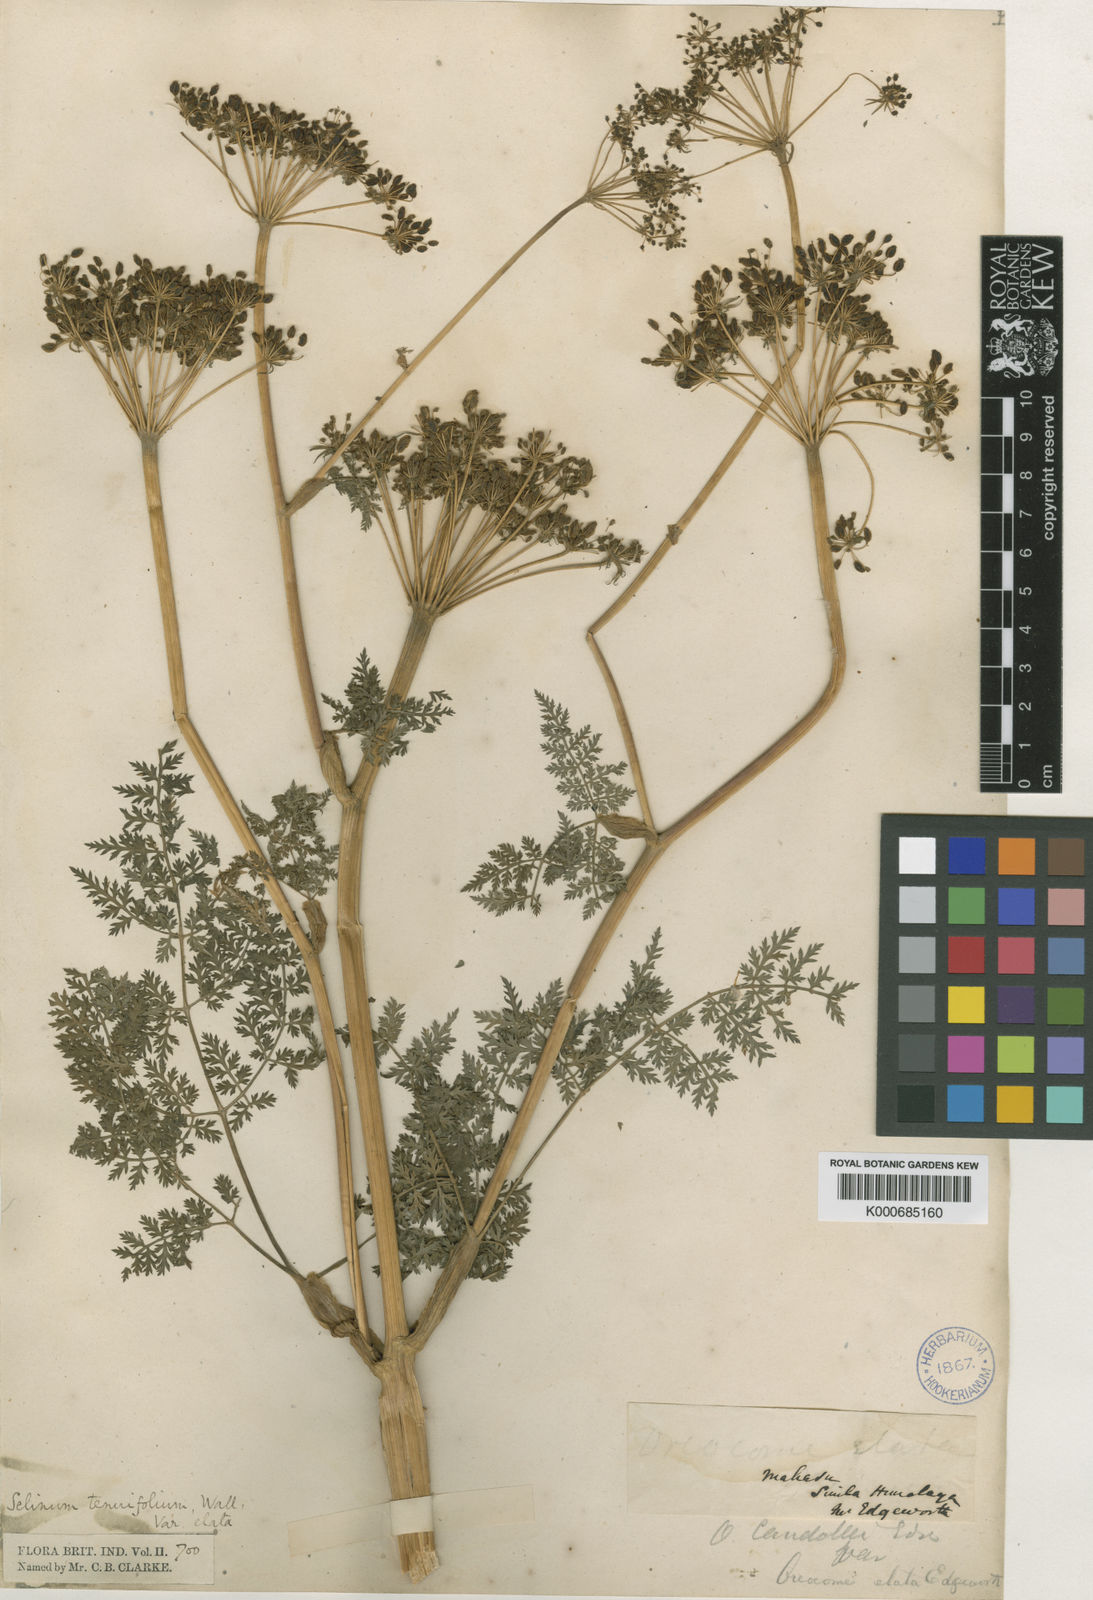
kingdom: Plantae
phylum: Tracheophyta
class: Magnoliopsida
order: Apiales
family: Apiaceae
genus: Selinum
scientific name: Selinum
